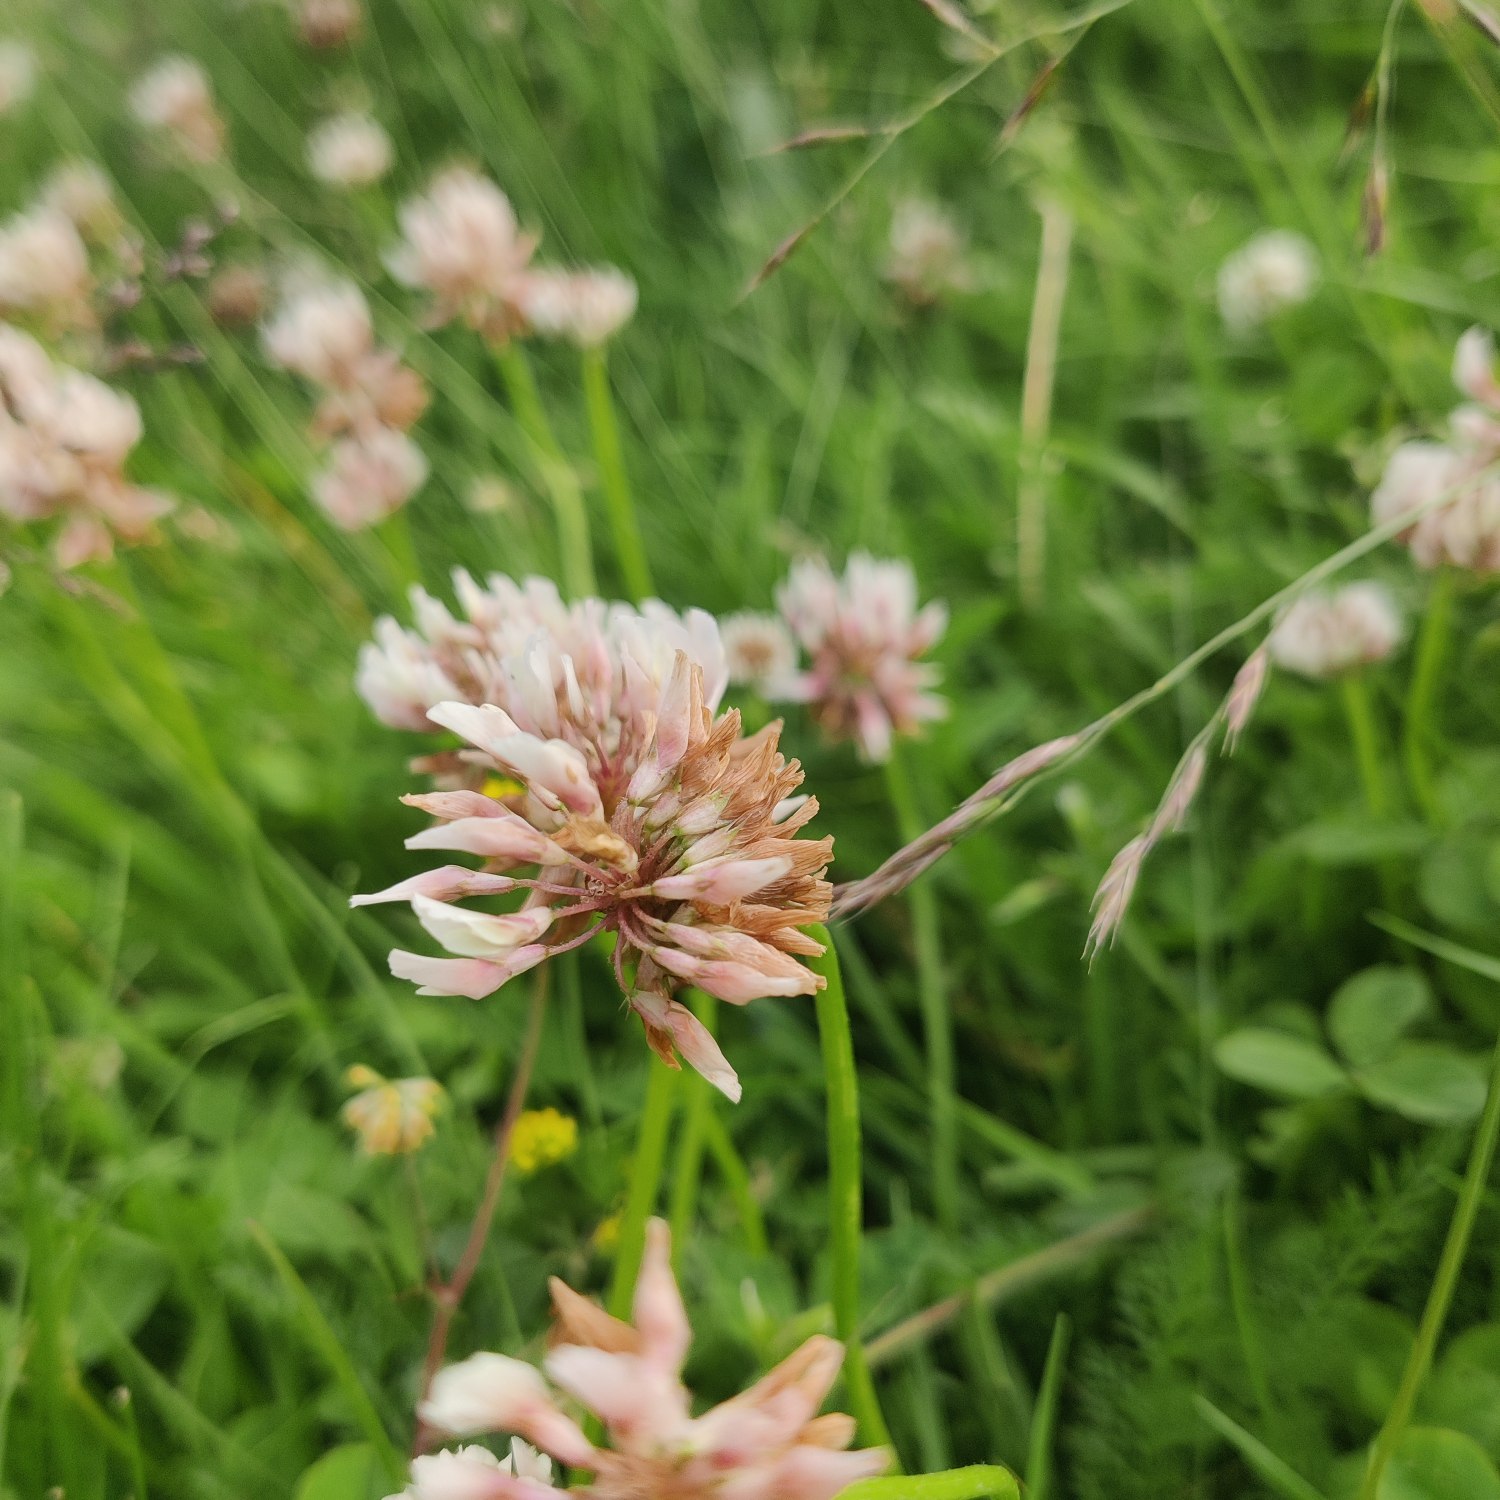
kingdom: Plantae
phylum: Tracheophyta
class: Magnoliopsida
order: Fabales
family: Fabaceae
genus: Trifolium
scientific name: Trifolium repens
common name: Hvid-kløver
